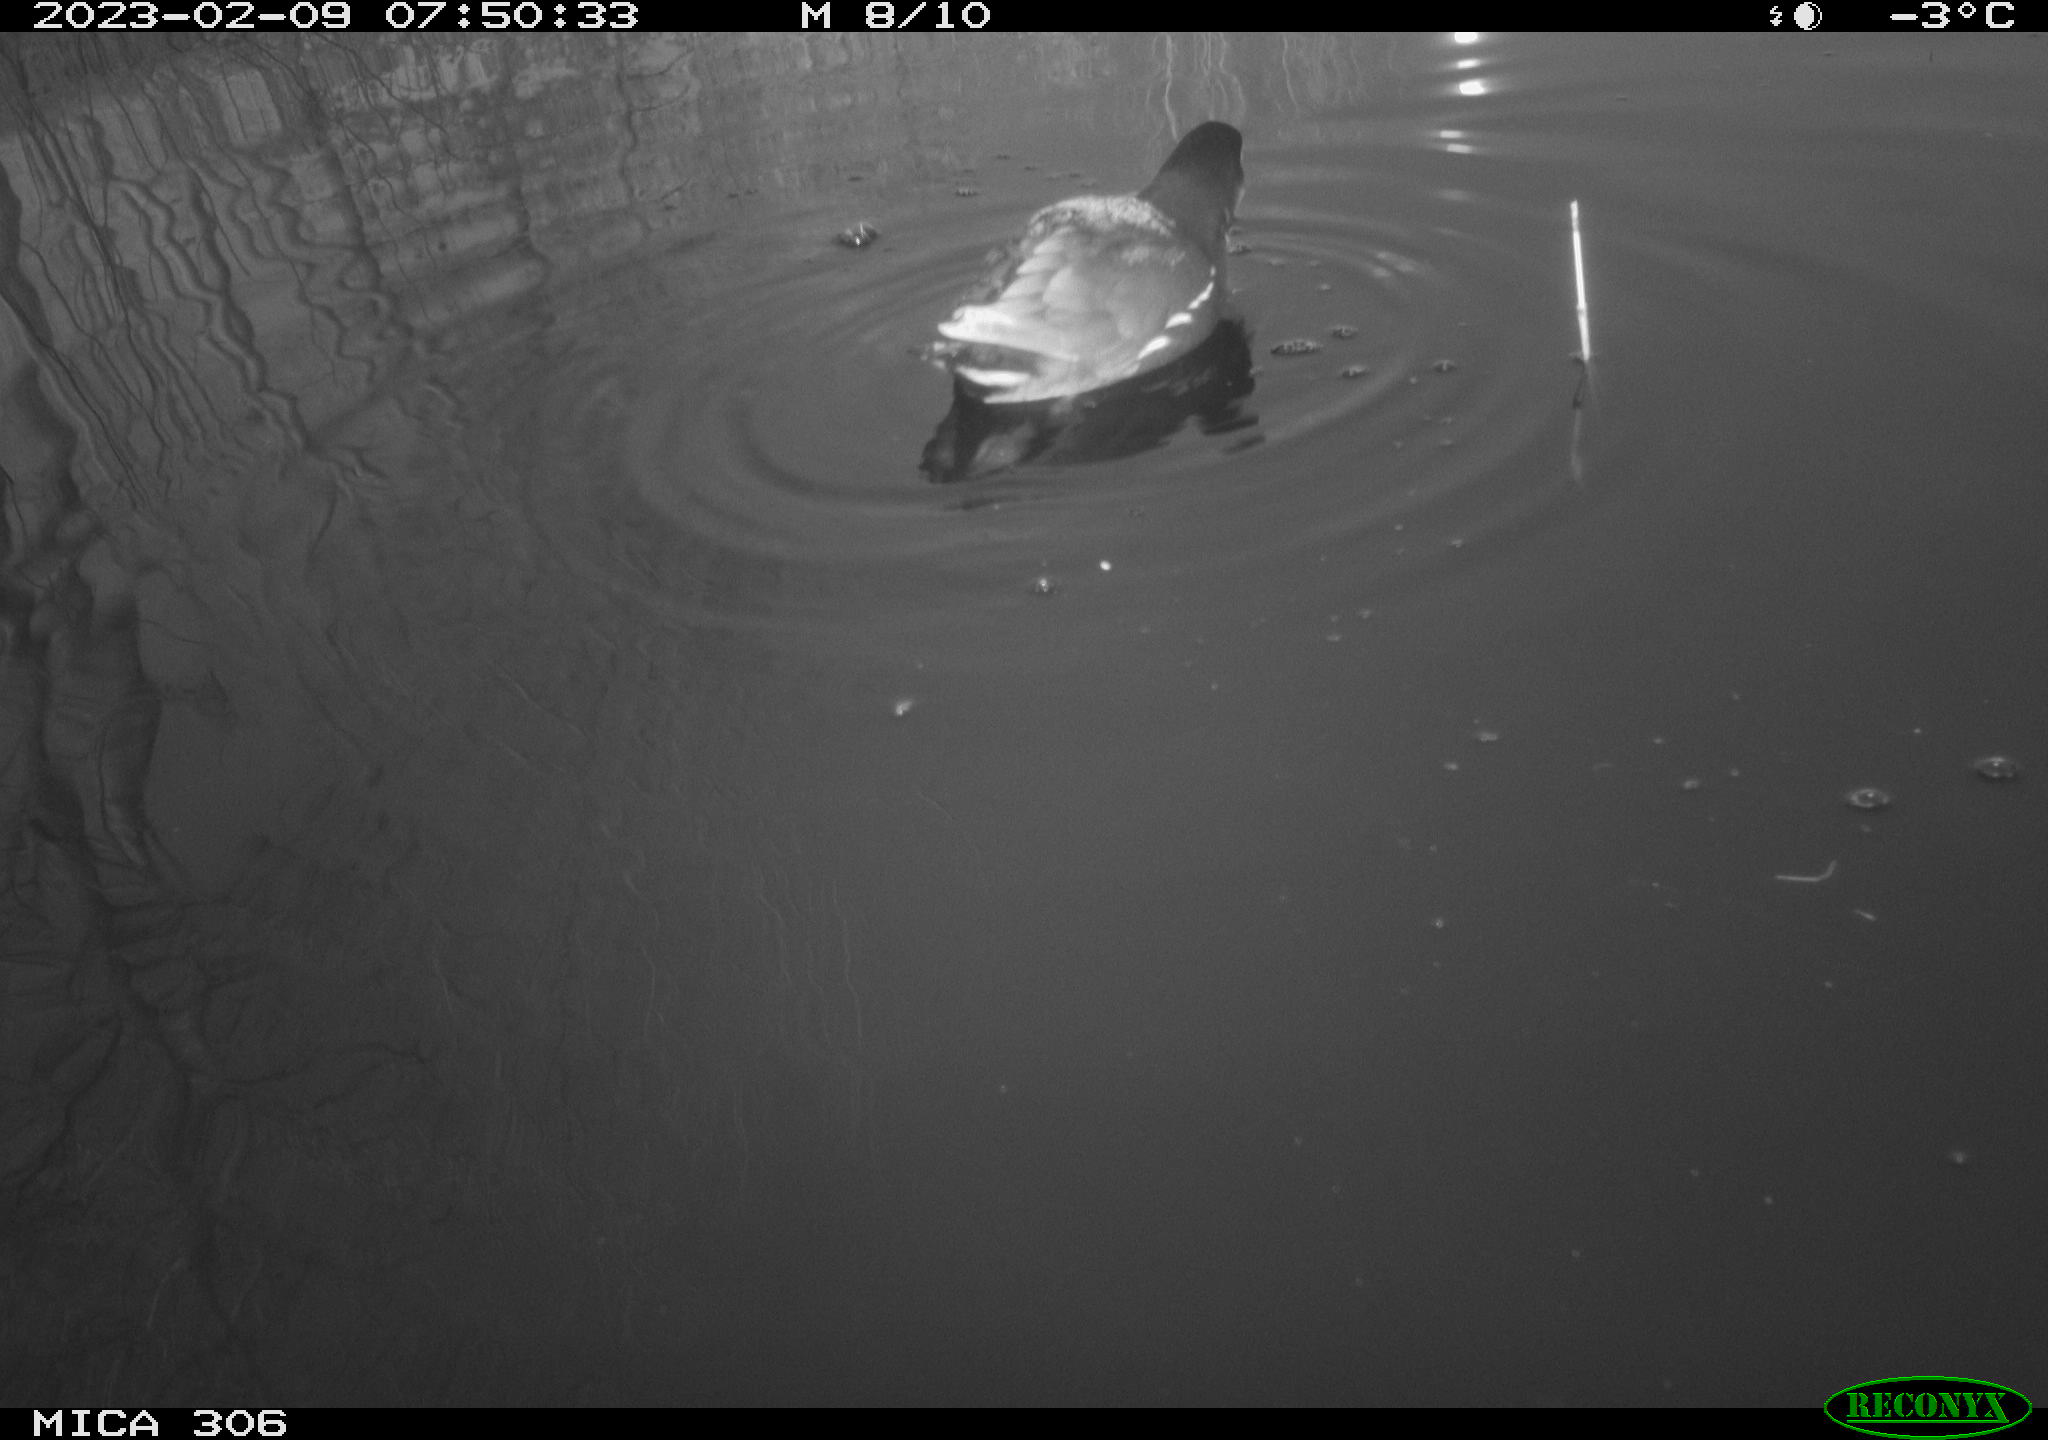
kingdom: Animalia
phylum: Chordata
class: Aves
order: Gruiformes
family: Rallidae
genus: Gallinula
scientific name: Gallinula chloropus
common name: Common moorhen
